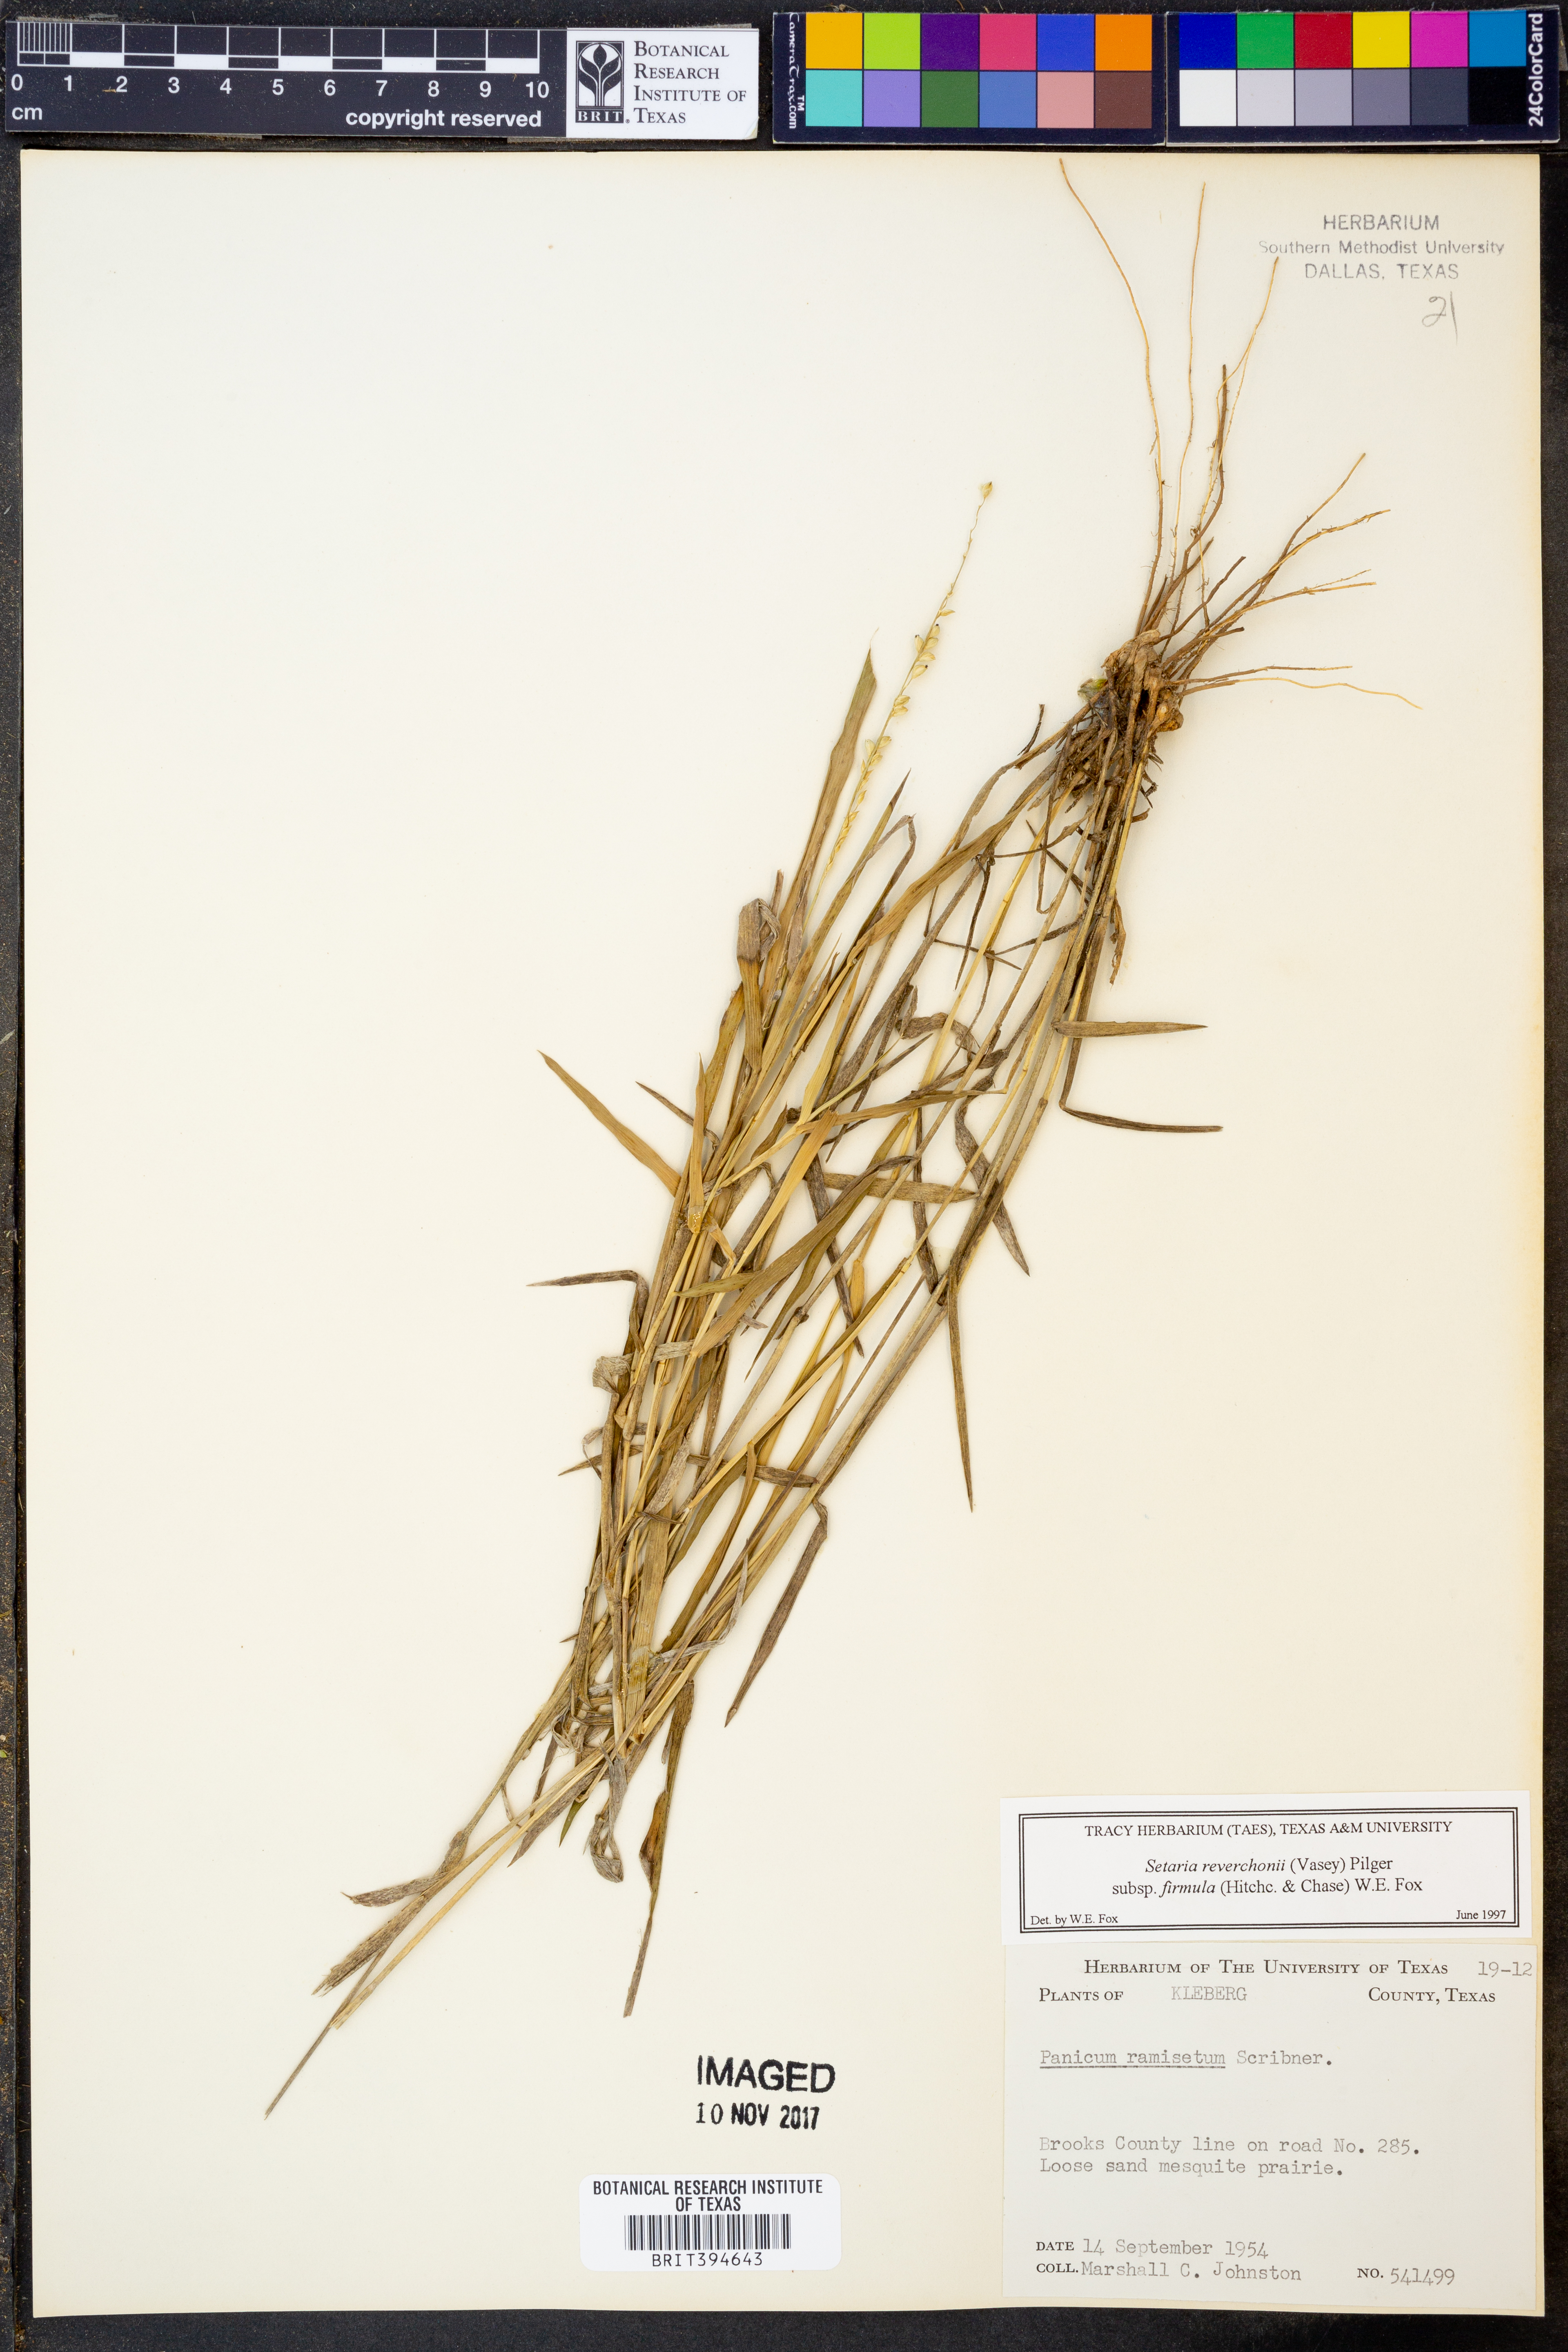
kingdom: Plantae
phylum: Tracheophyta
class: Liliopsida
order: Poales
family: Poaceae
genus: Setaria
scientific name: Setaria reverchonii
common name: Reverchon's bristle grass
